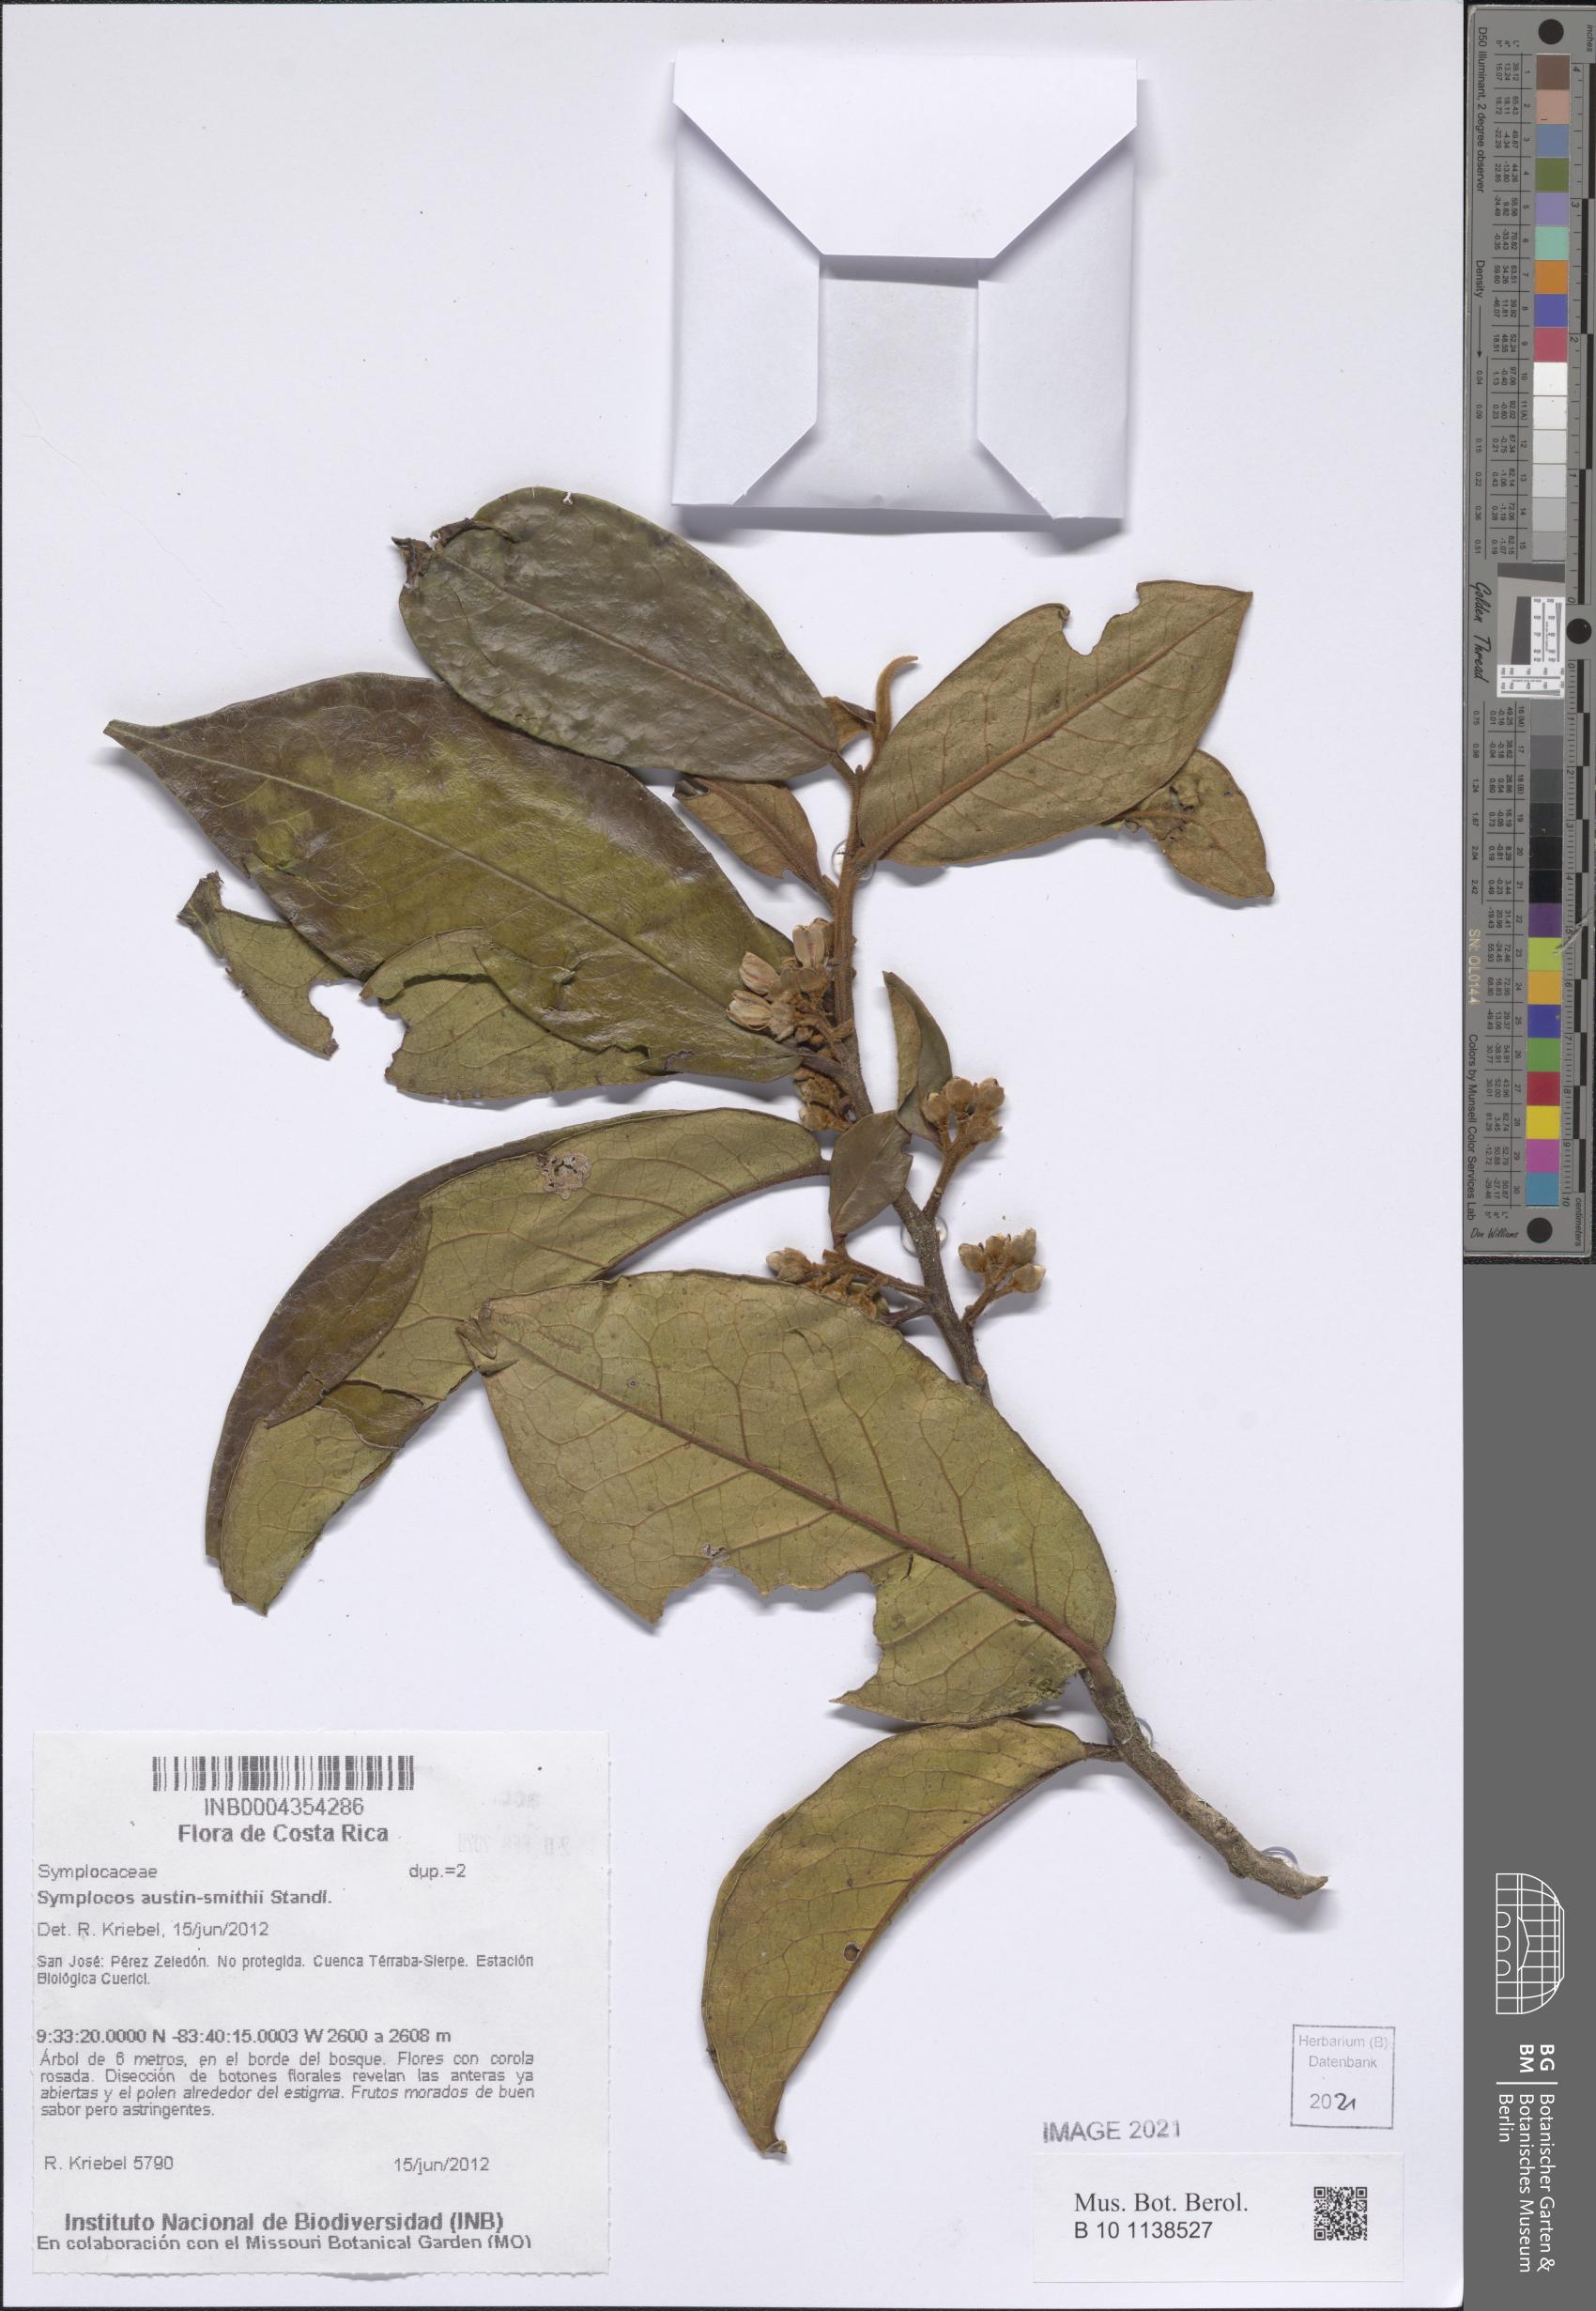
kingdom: Plantae
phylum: Tracheophyta
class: Magnoliopsida
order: Ericales
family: Symplocaceae
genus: Symplocos
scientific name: Symplocos austin-smithii
